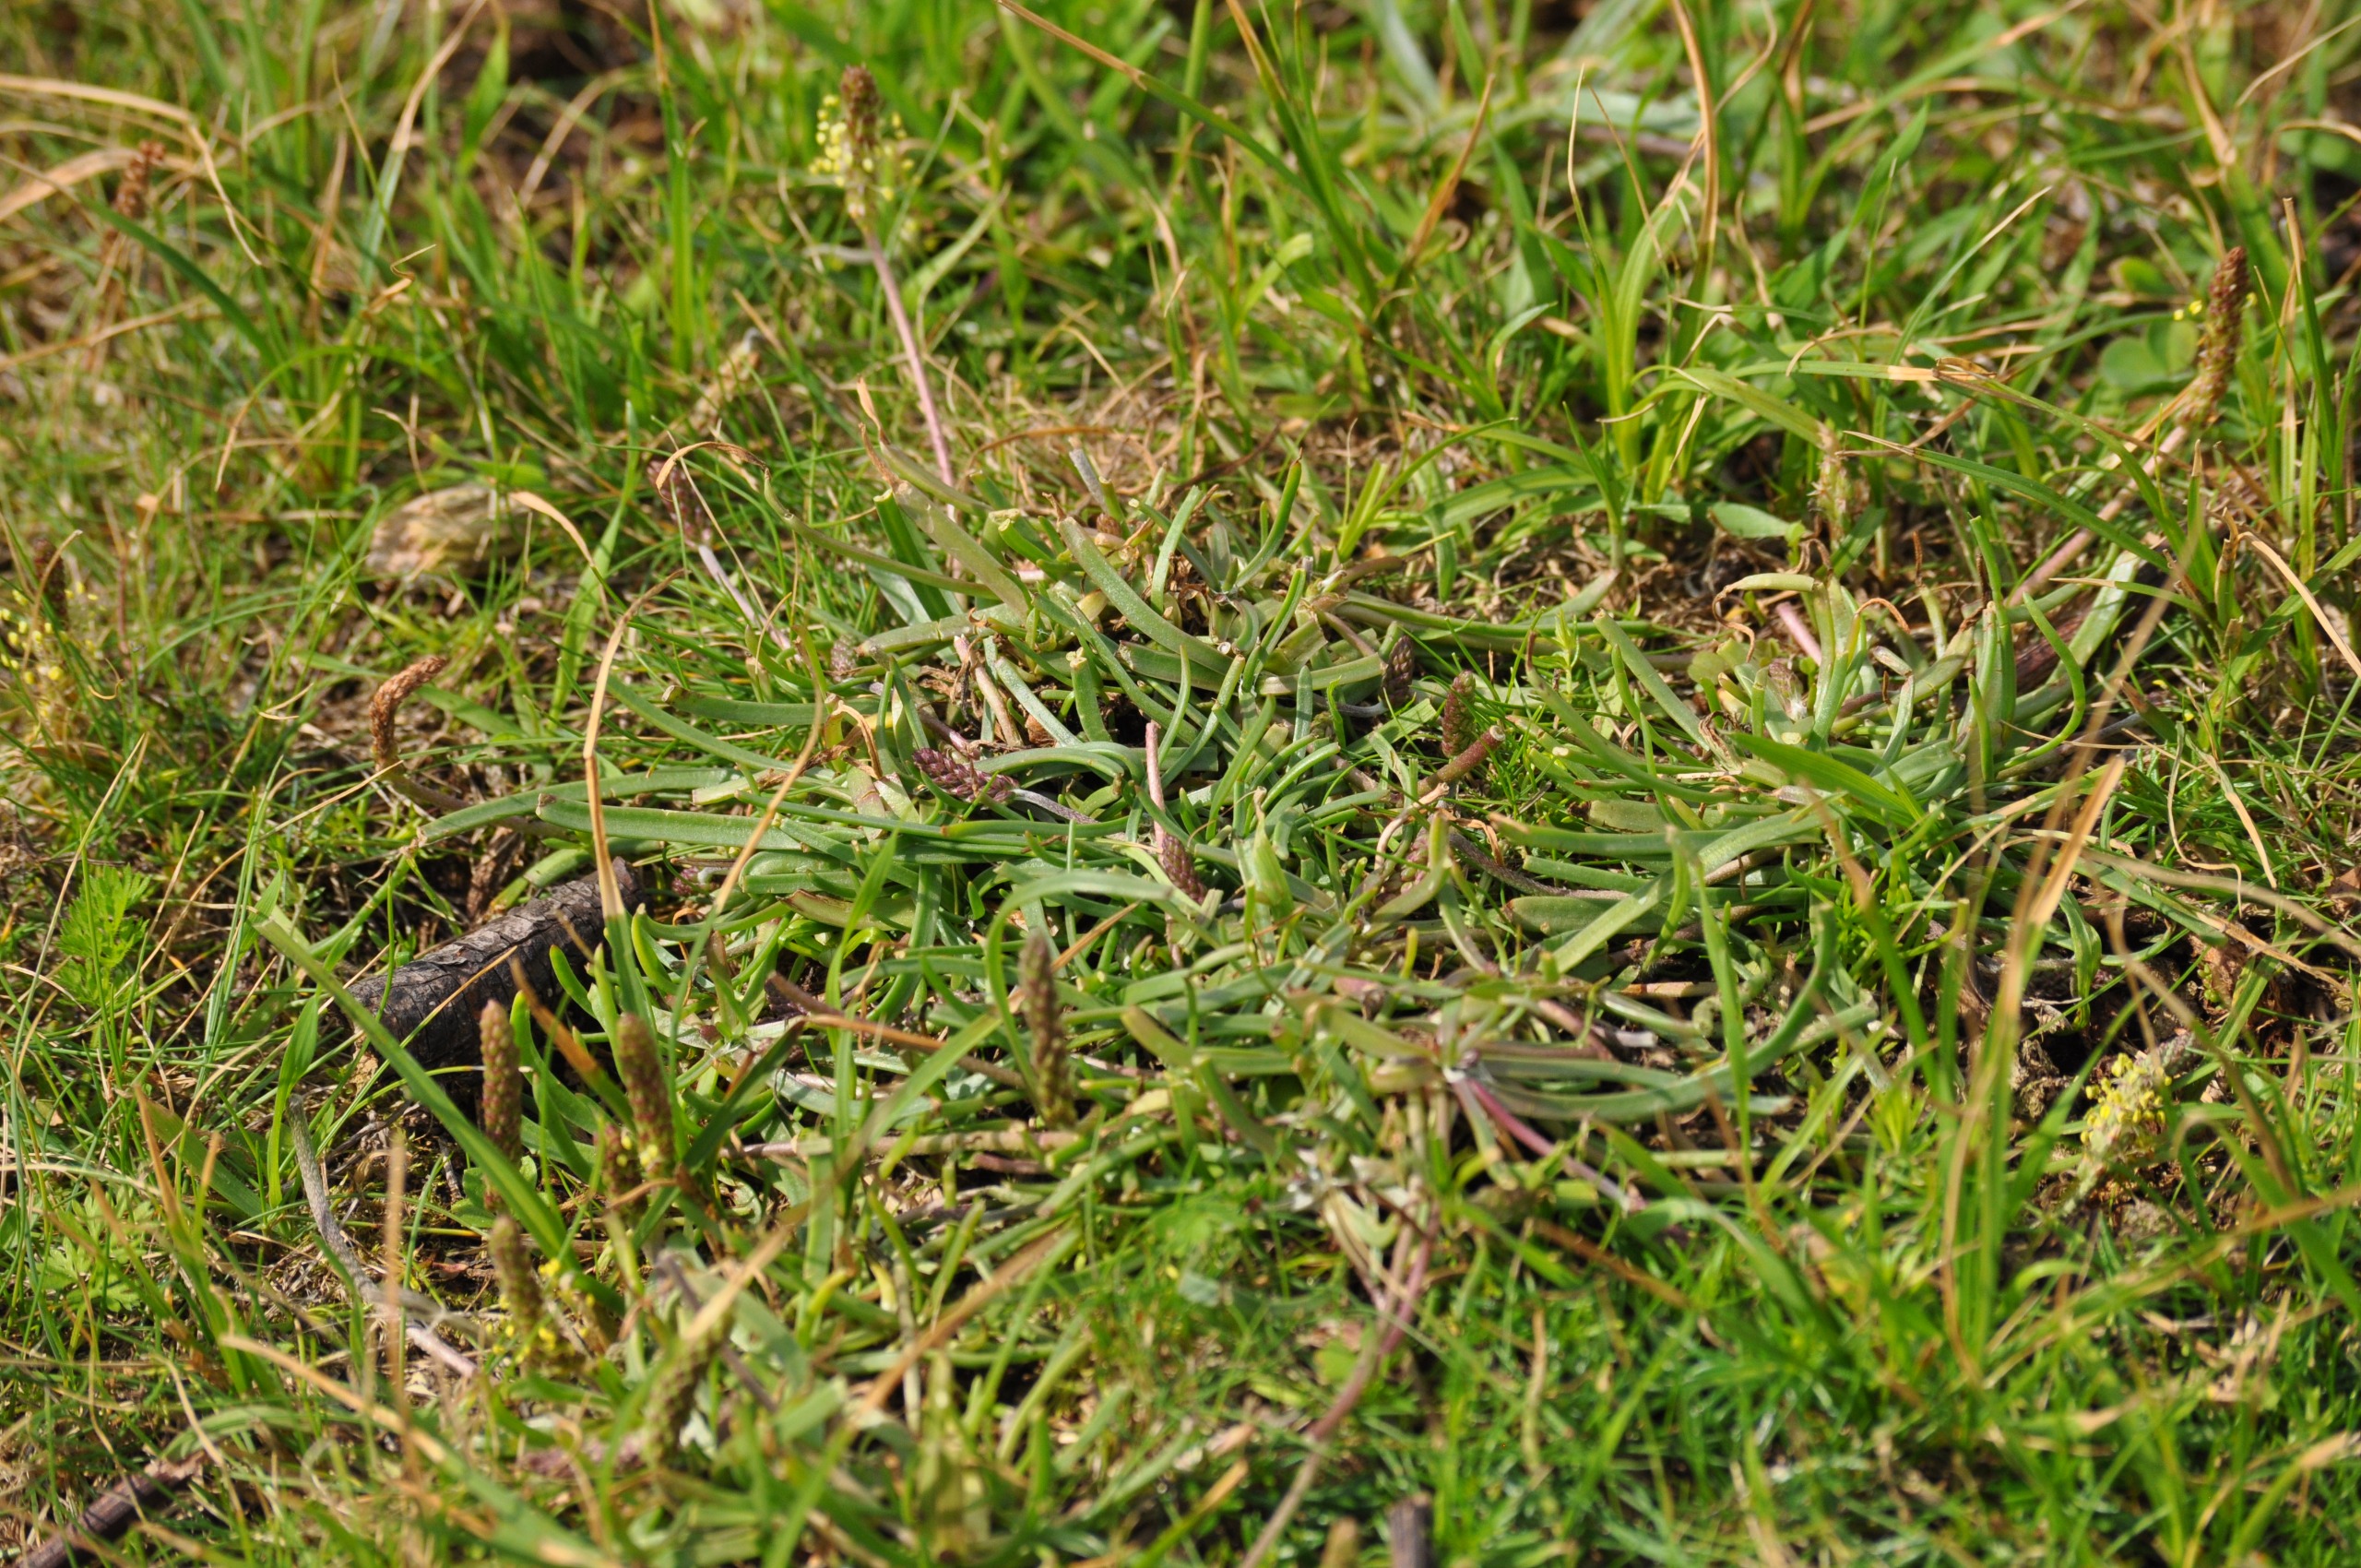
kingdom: Plantae
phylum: Tracheophyta
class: Magnoliopsida
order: Lamiales
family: Plantaginaceae
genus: Plantago
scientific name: Plantago maritima
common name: Strand-vejbred
